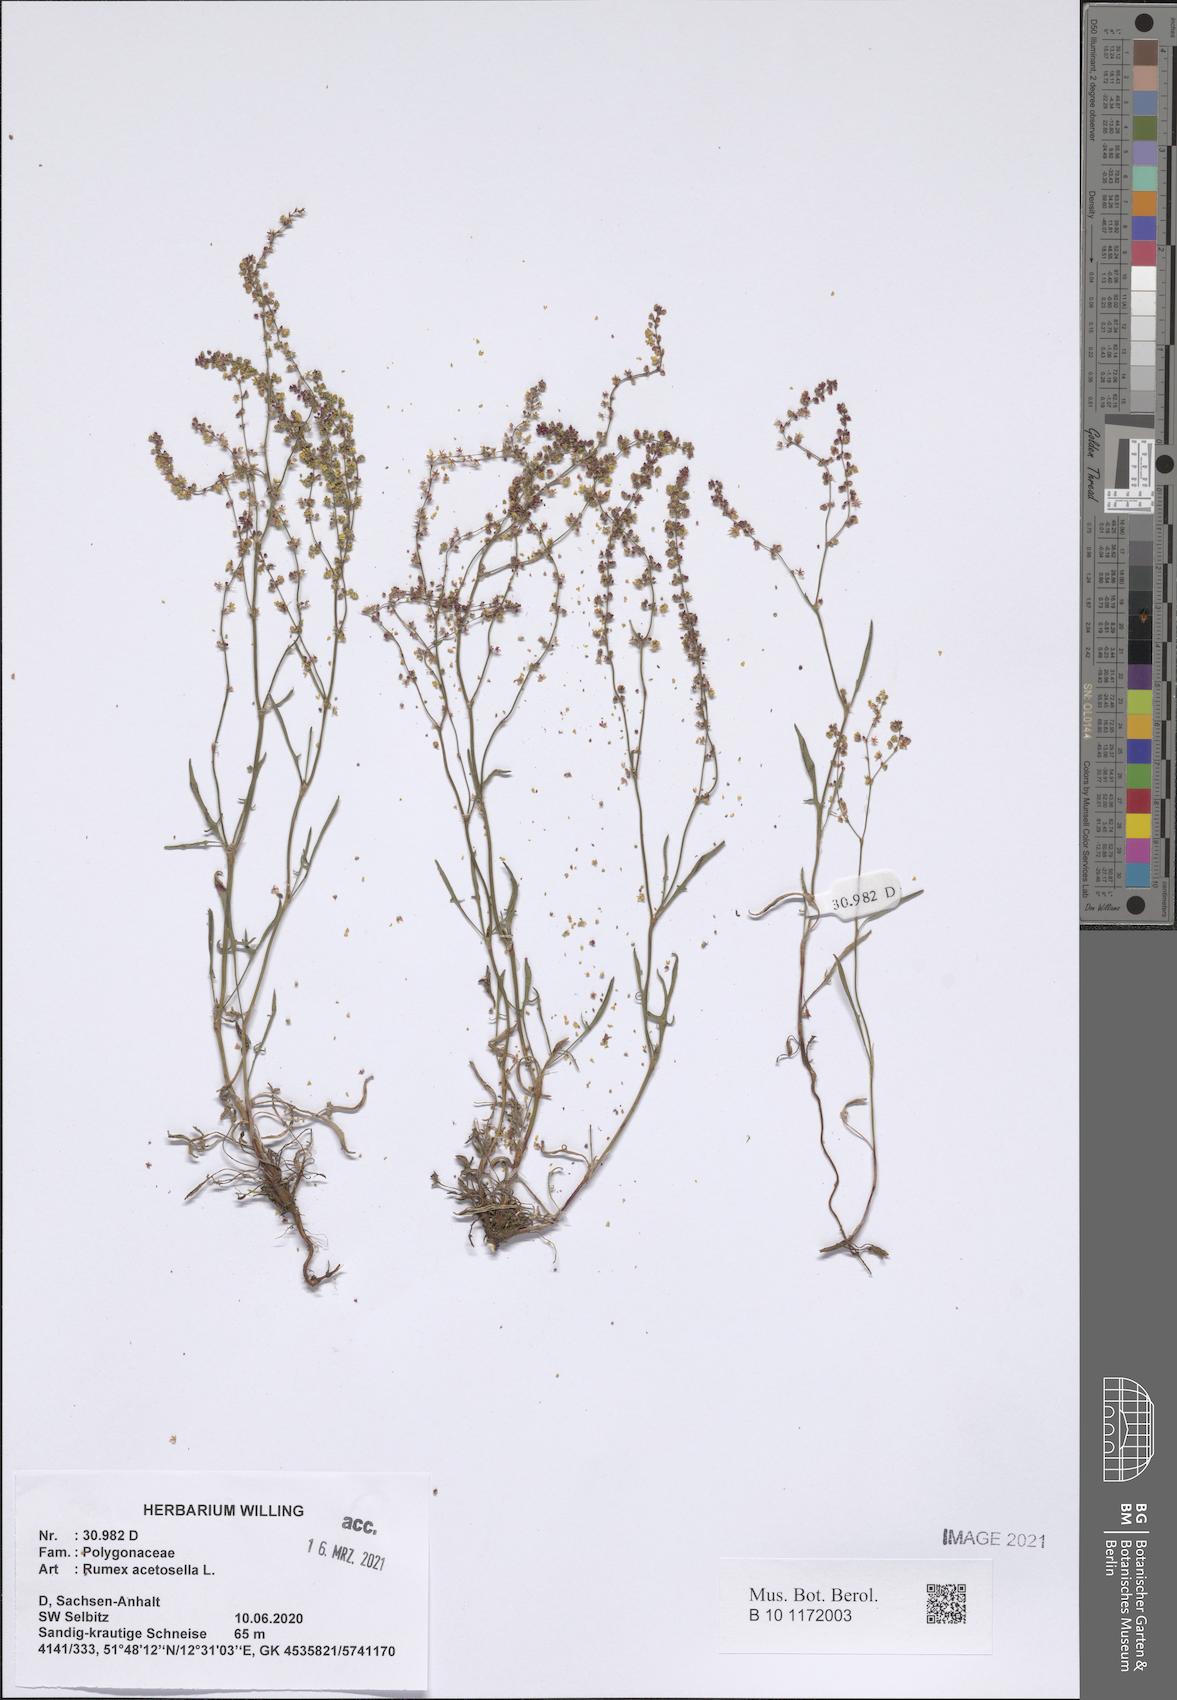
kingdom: Plantae
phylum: Tracheophyta
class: Magnoliopsida
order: Caryophyllales
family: Polygonaceae
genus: Rumex
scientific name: Rumex acetosella
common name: Common sheep sorrel
